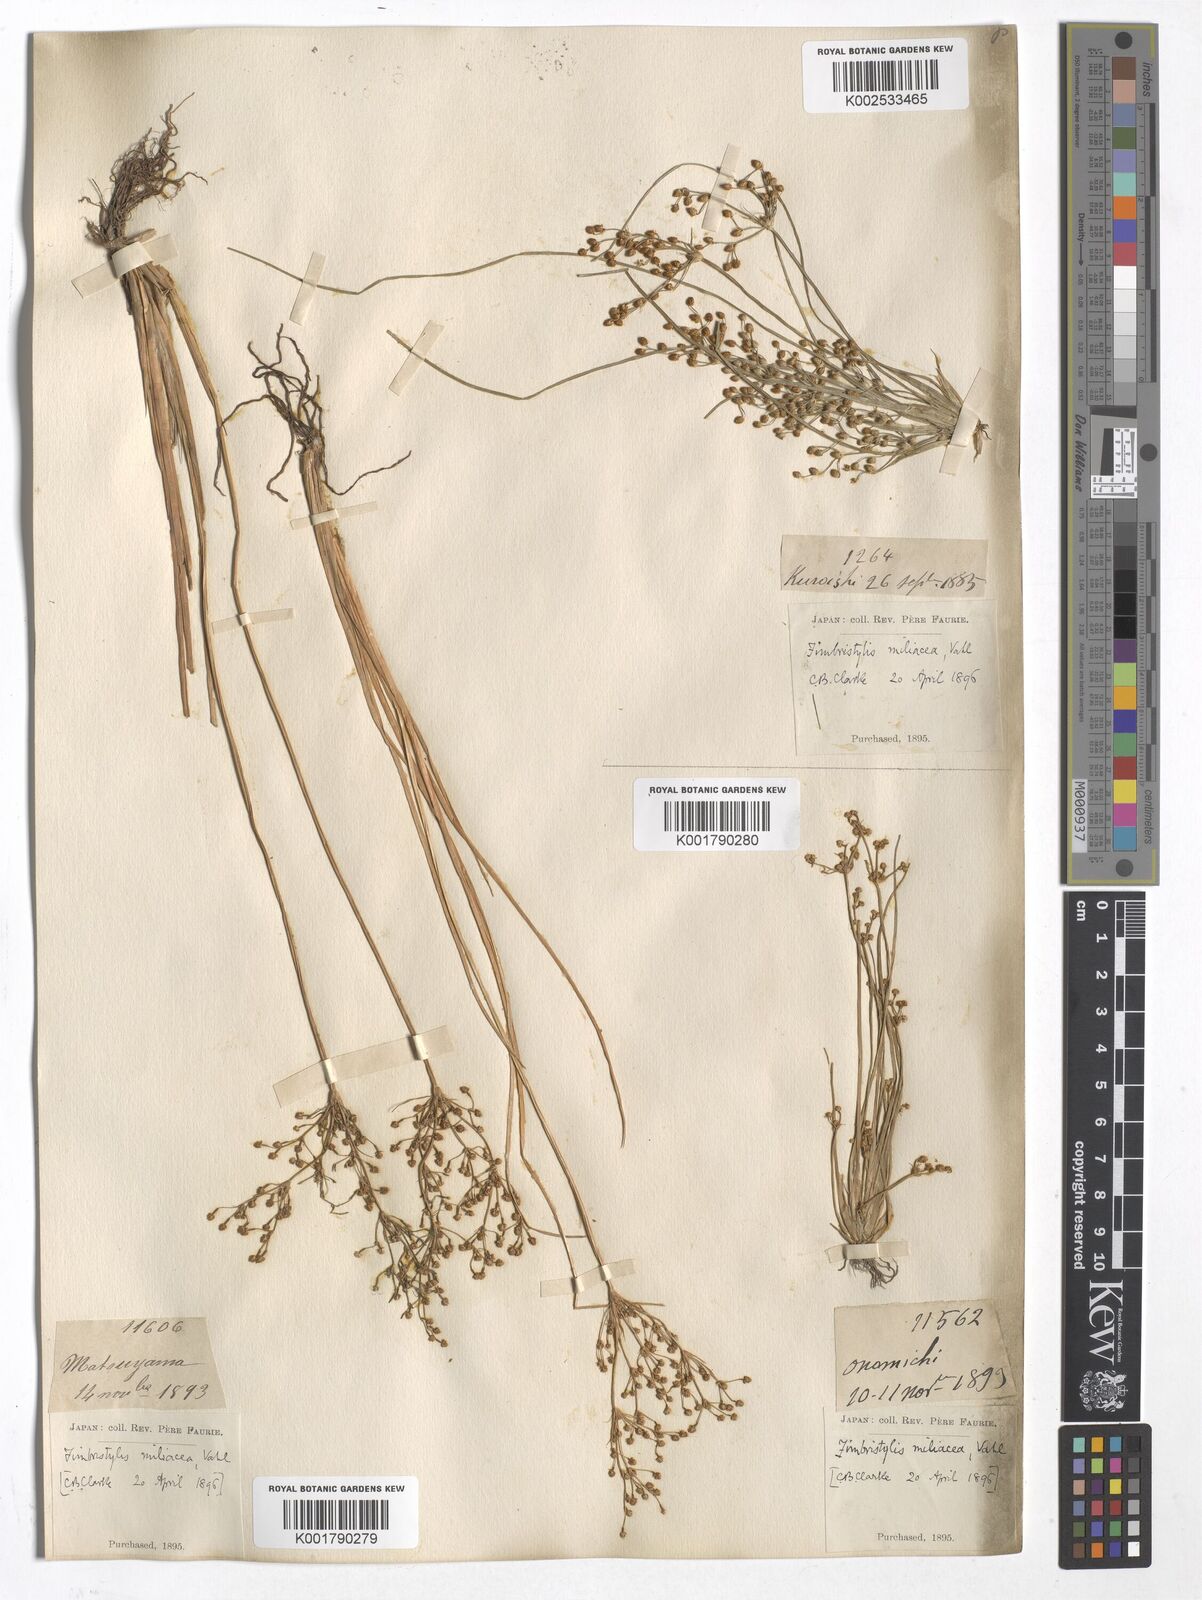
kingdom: Plantae
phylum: Tracheophyta
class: Liliopsida
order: Poales
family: Cyperaceae
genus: Fimbristylis
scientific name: Fimbristylis quinquangularis
